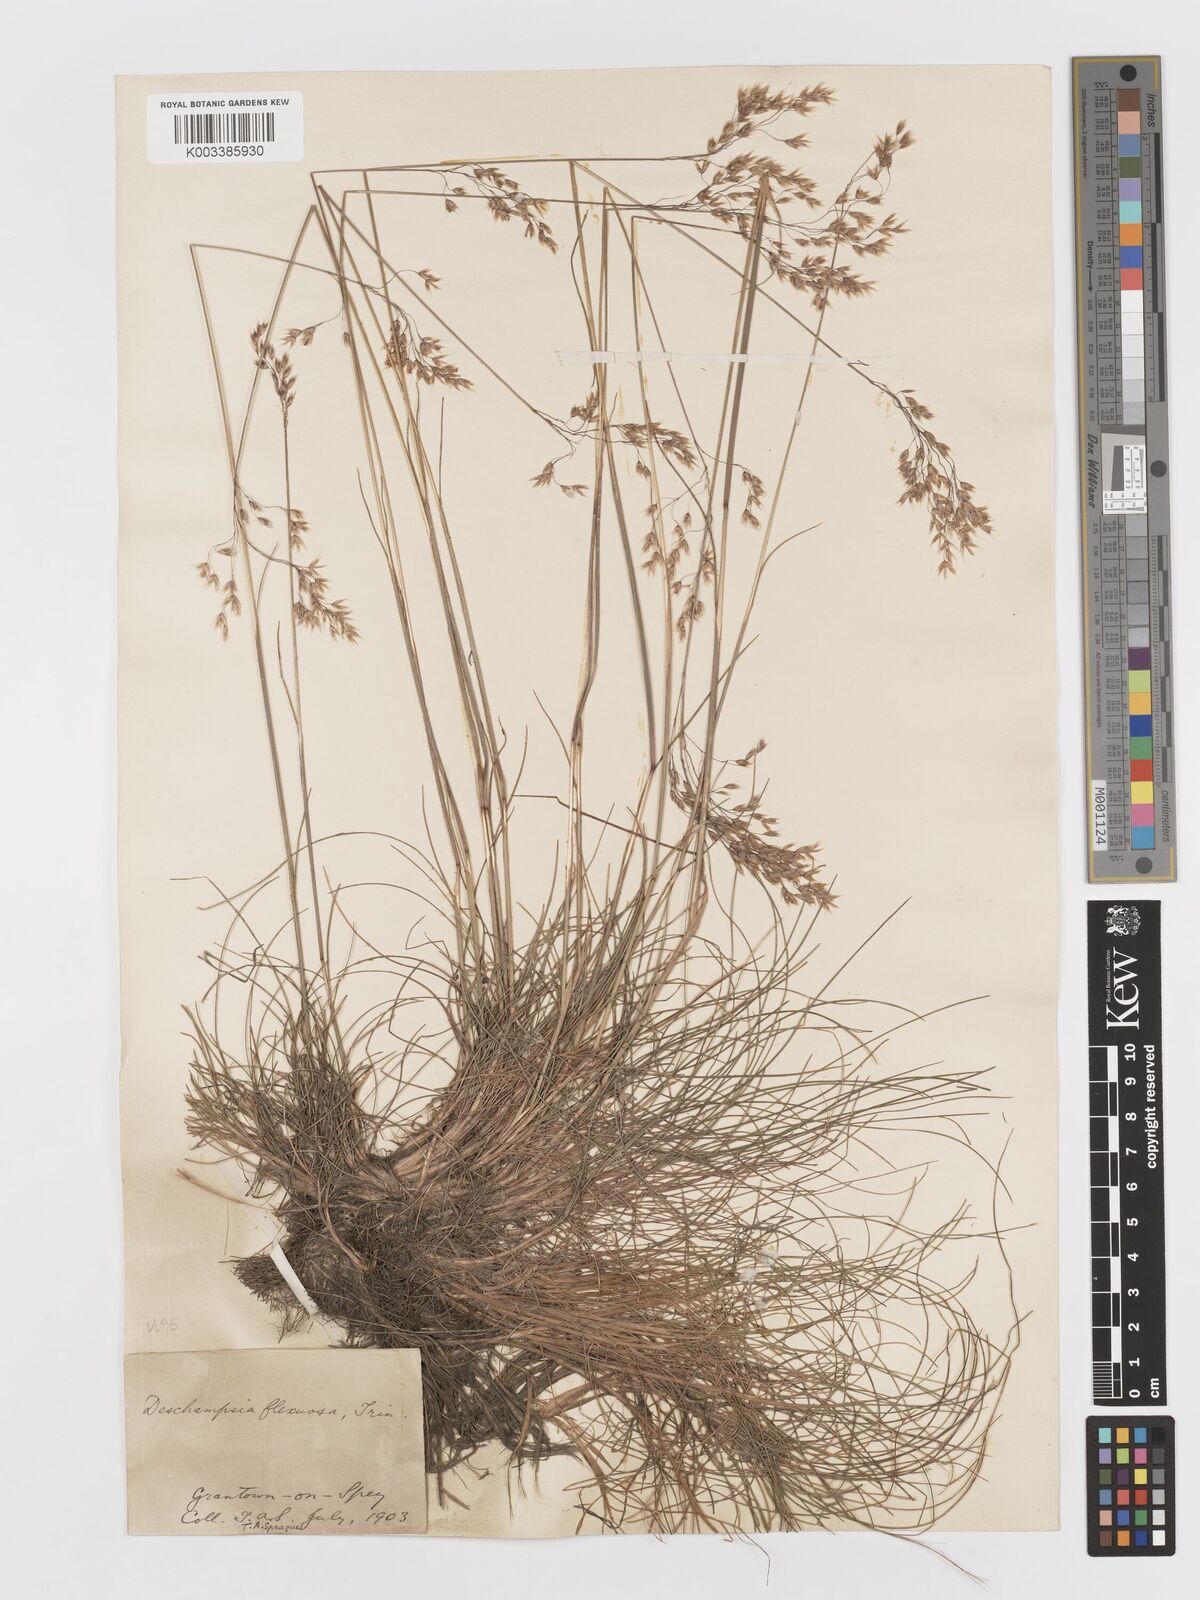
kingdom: Plantae
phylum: Tracheophyta
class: Liliopsida
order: Poales
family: Poaceae
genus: Avenella
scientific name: Avenella flexuosa
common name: Wavy hairgrass
